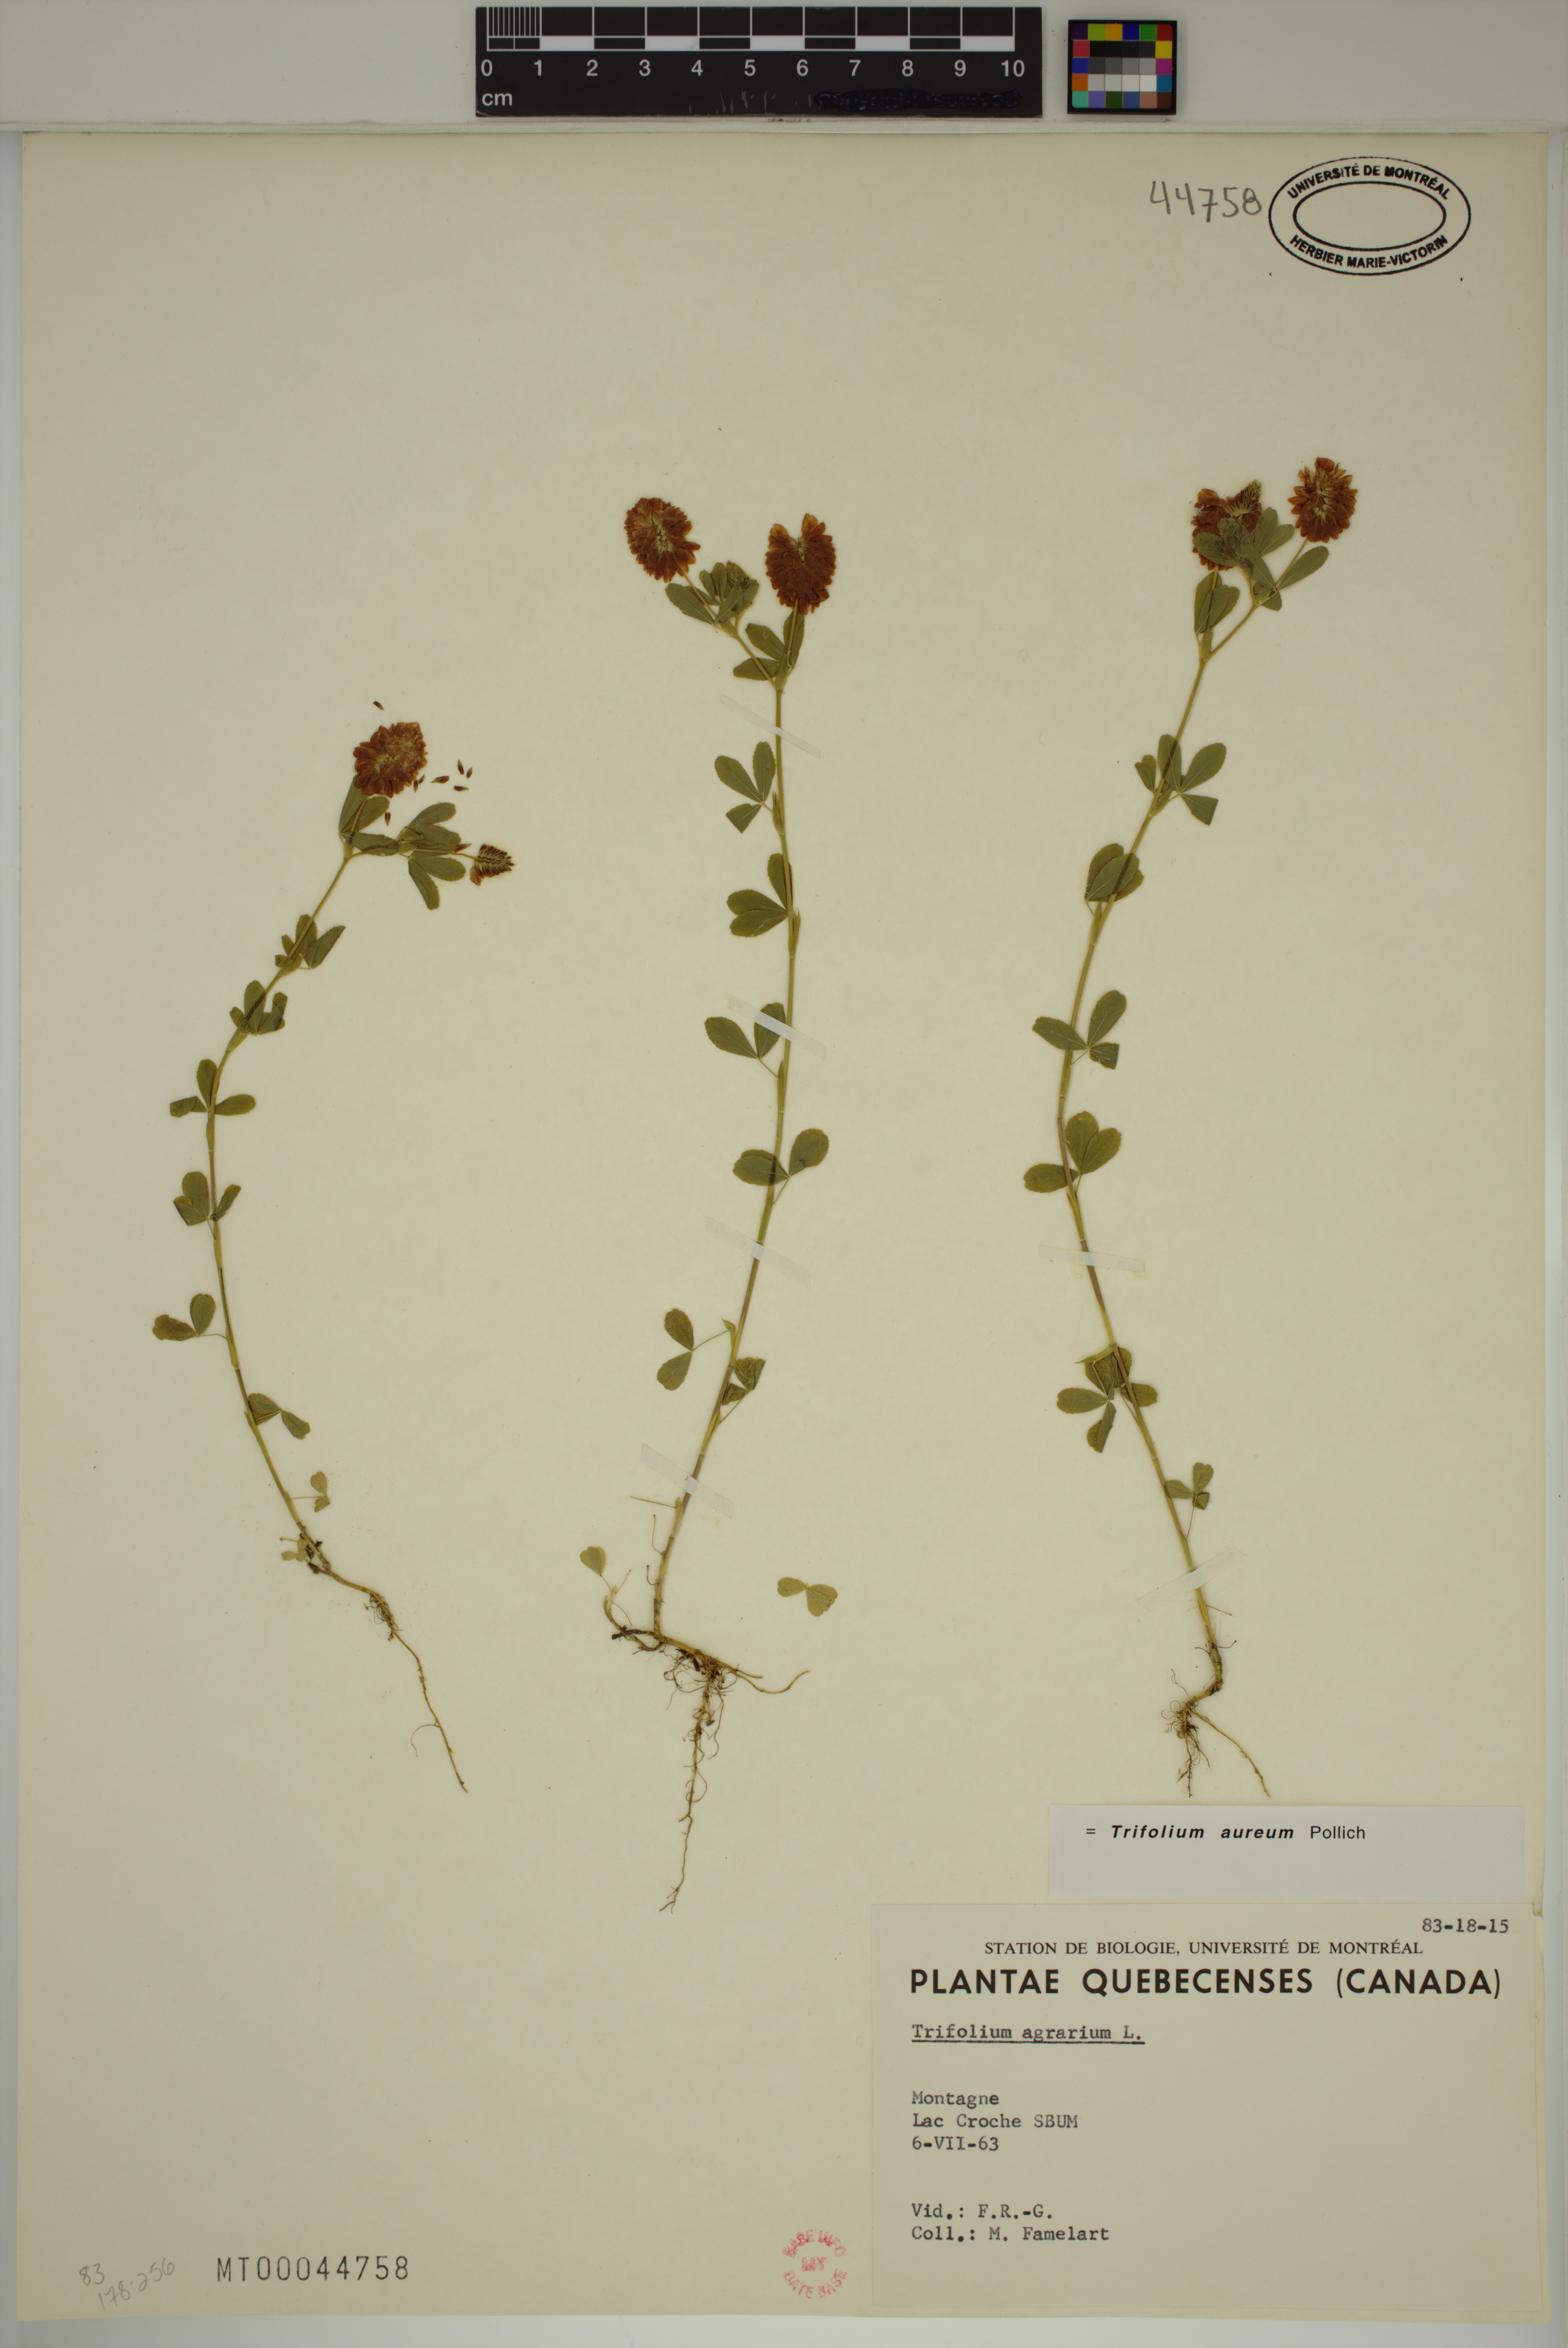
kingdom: Plantae
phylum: Tracheophyta
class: Magnoliopsida
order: Fabales
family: Fabaceae
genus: Trifolium
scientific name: Trifolium aureum
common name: Golden clover
